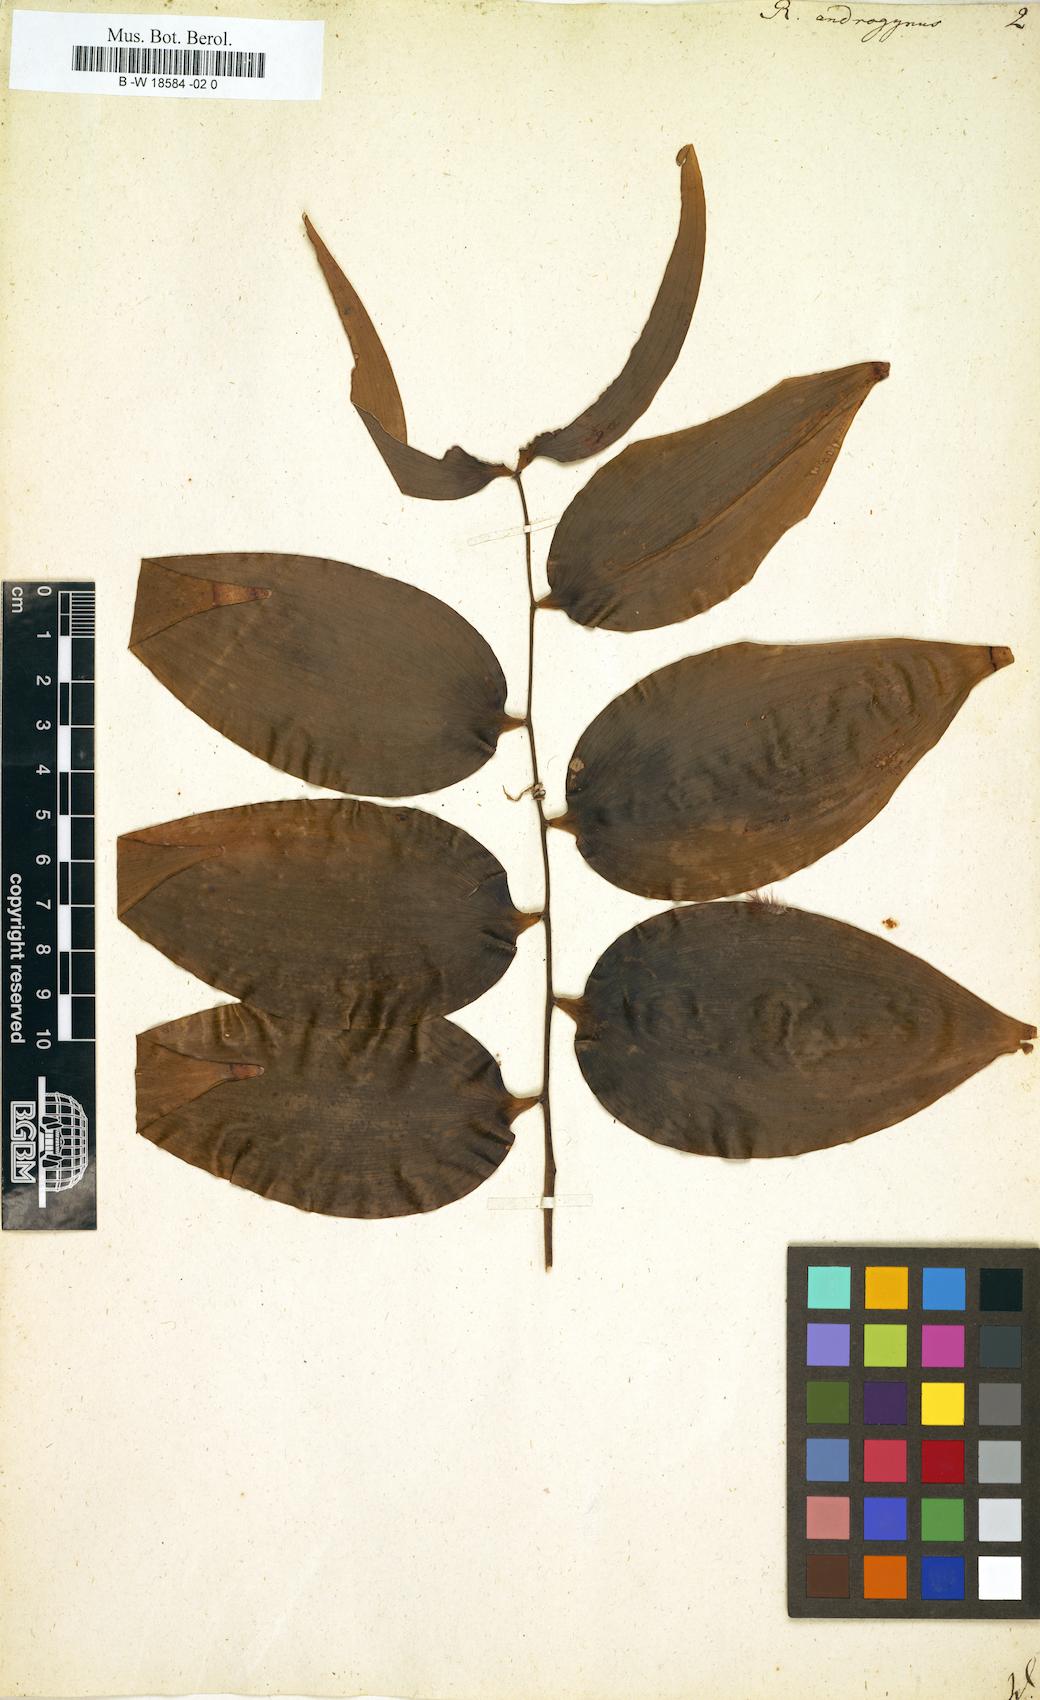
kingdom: Plantae
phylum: Tracheophyta
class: Liliopsida
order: Asparagales
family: Asparagaceae
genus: Semele
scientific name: Semele androgyna
